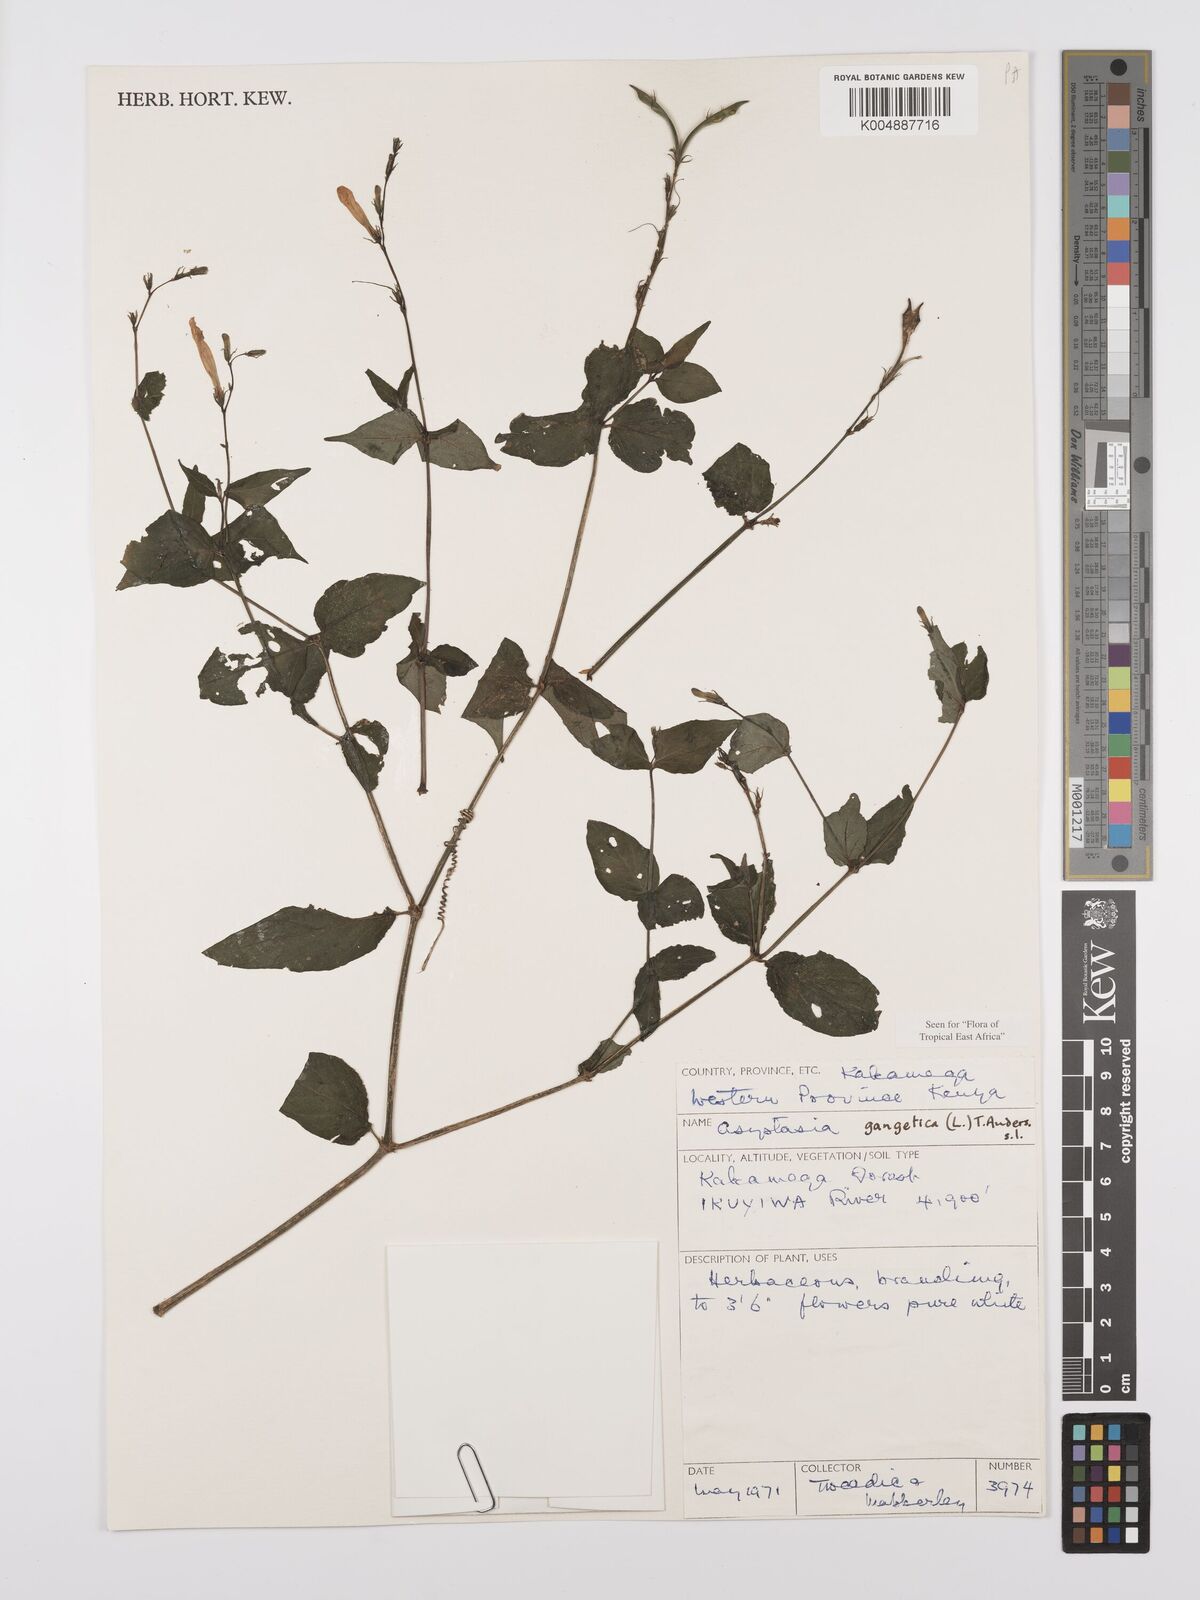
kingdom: Plantae
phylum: Tracheophyta
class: Magnoliopsida
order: Lamiales
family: Acanthaceae
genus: Asystasia
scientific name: Asystasia gangetica
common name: Chinese violet
